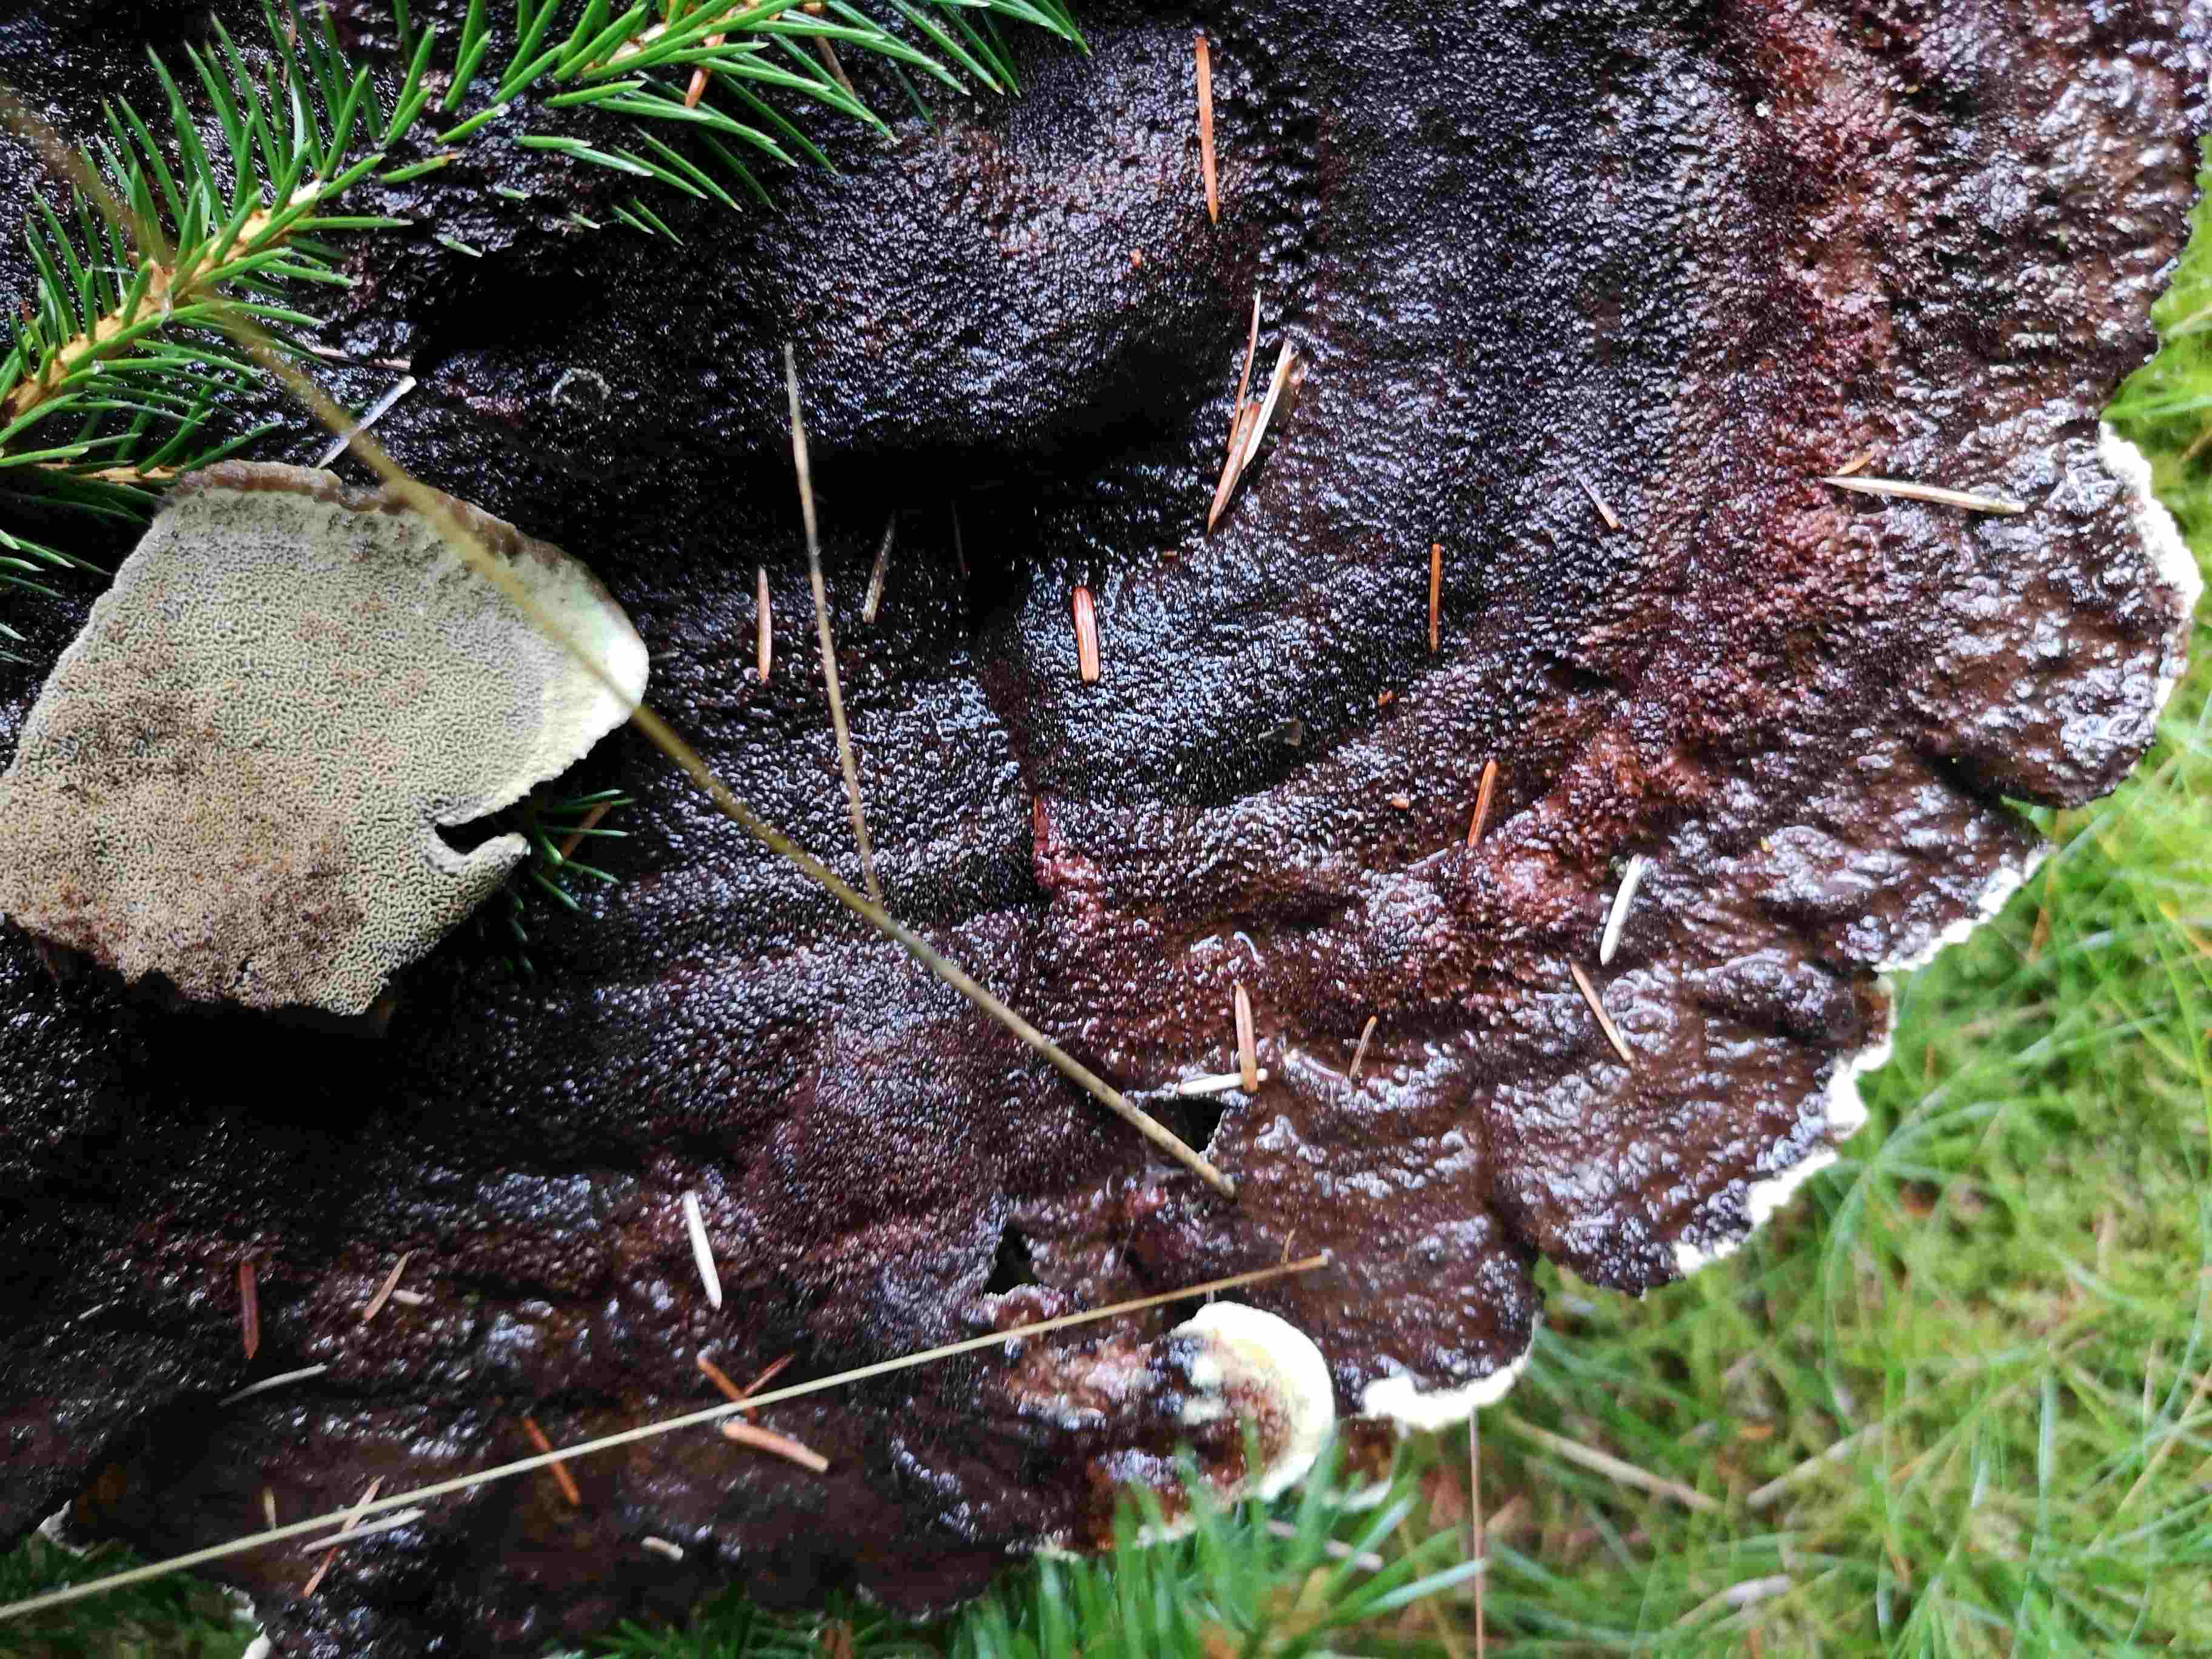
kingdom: Fungi
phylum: Basidiomycota
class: Agaricomycetes
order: Polyporales
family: Ischnodermataceae
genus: Ischnoderma
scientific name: Ischnoderma benzoinum
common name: gran-tjæreporesvamp
